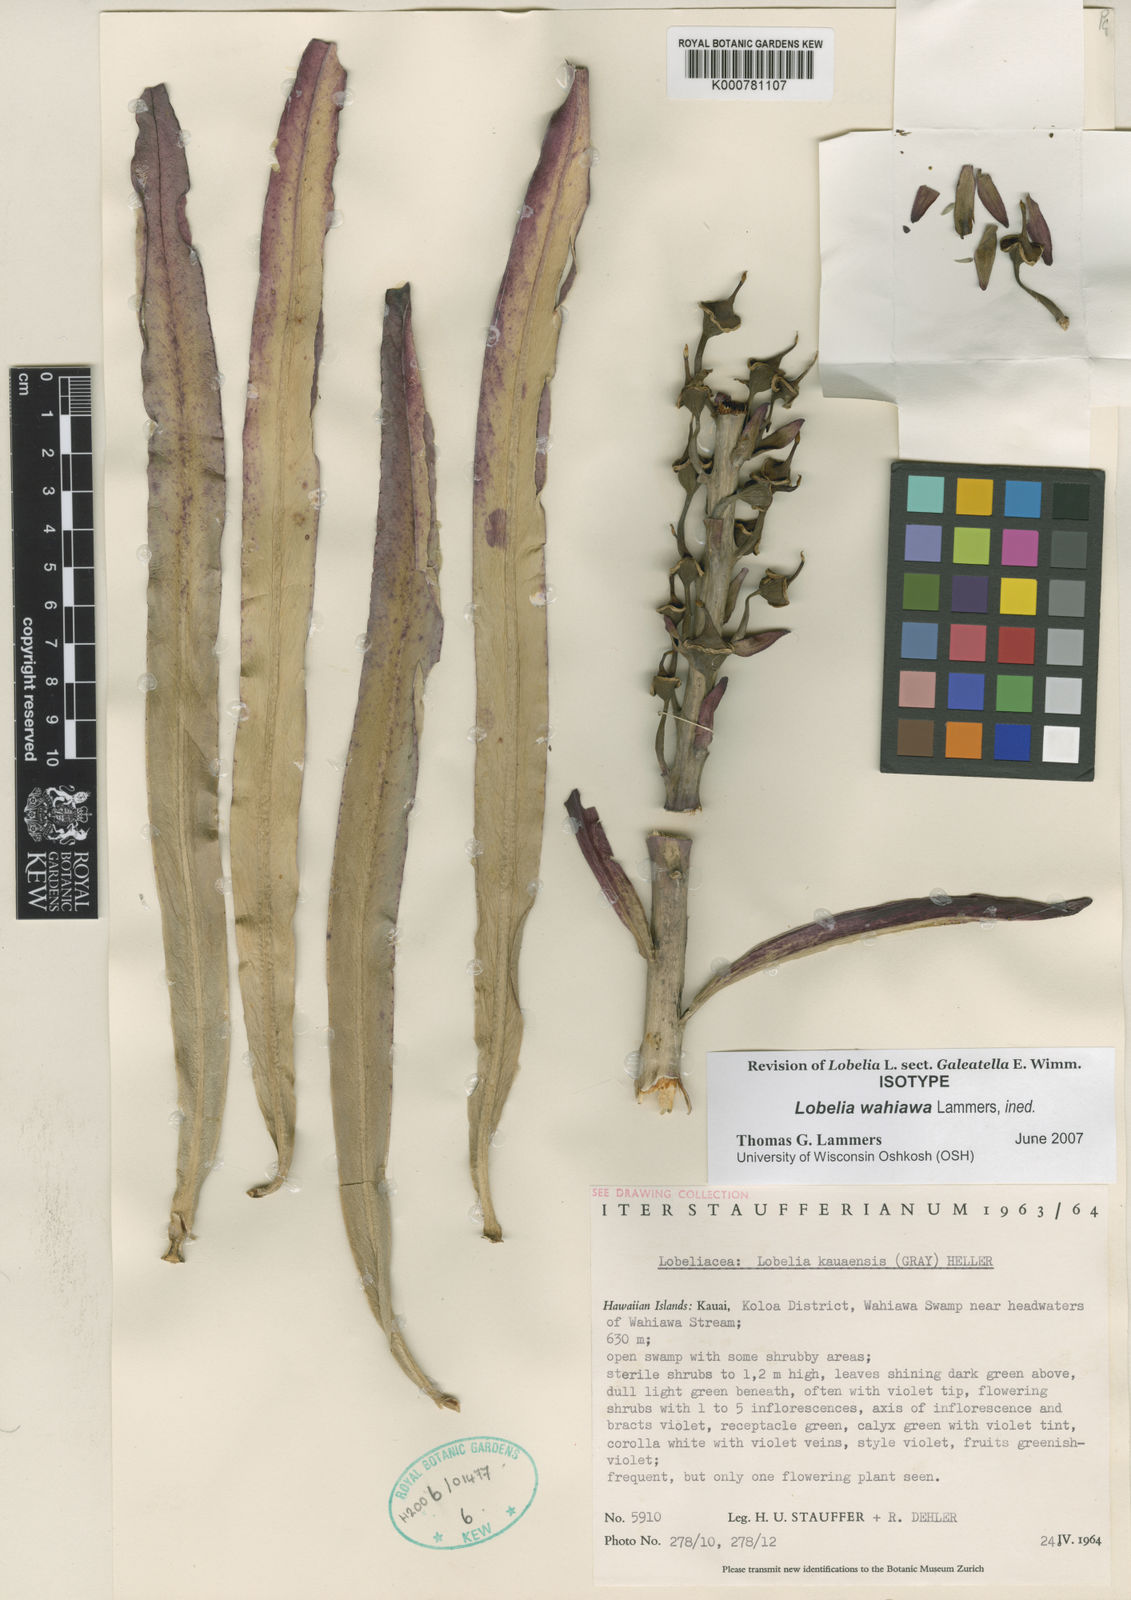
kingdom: Plantae
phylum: Tracheophyta
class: Magnoliopsida
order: Asterales
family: Campanulaceae
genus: Lobelia
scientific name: Lobelia wahiawa
